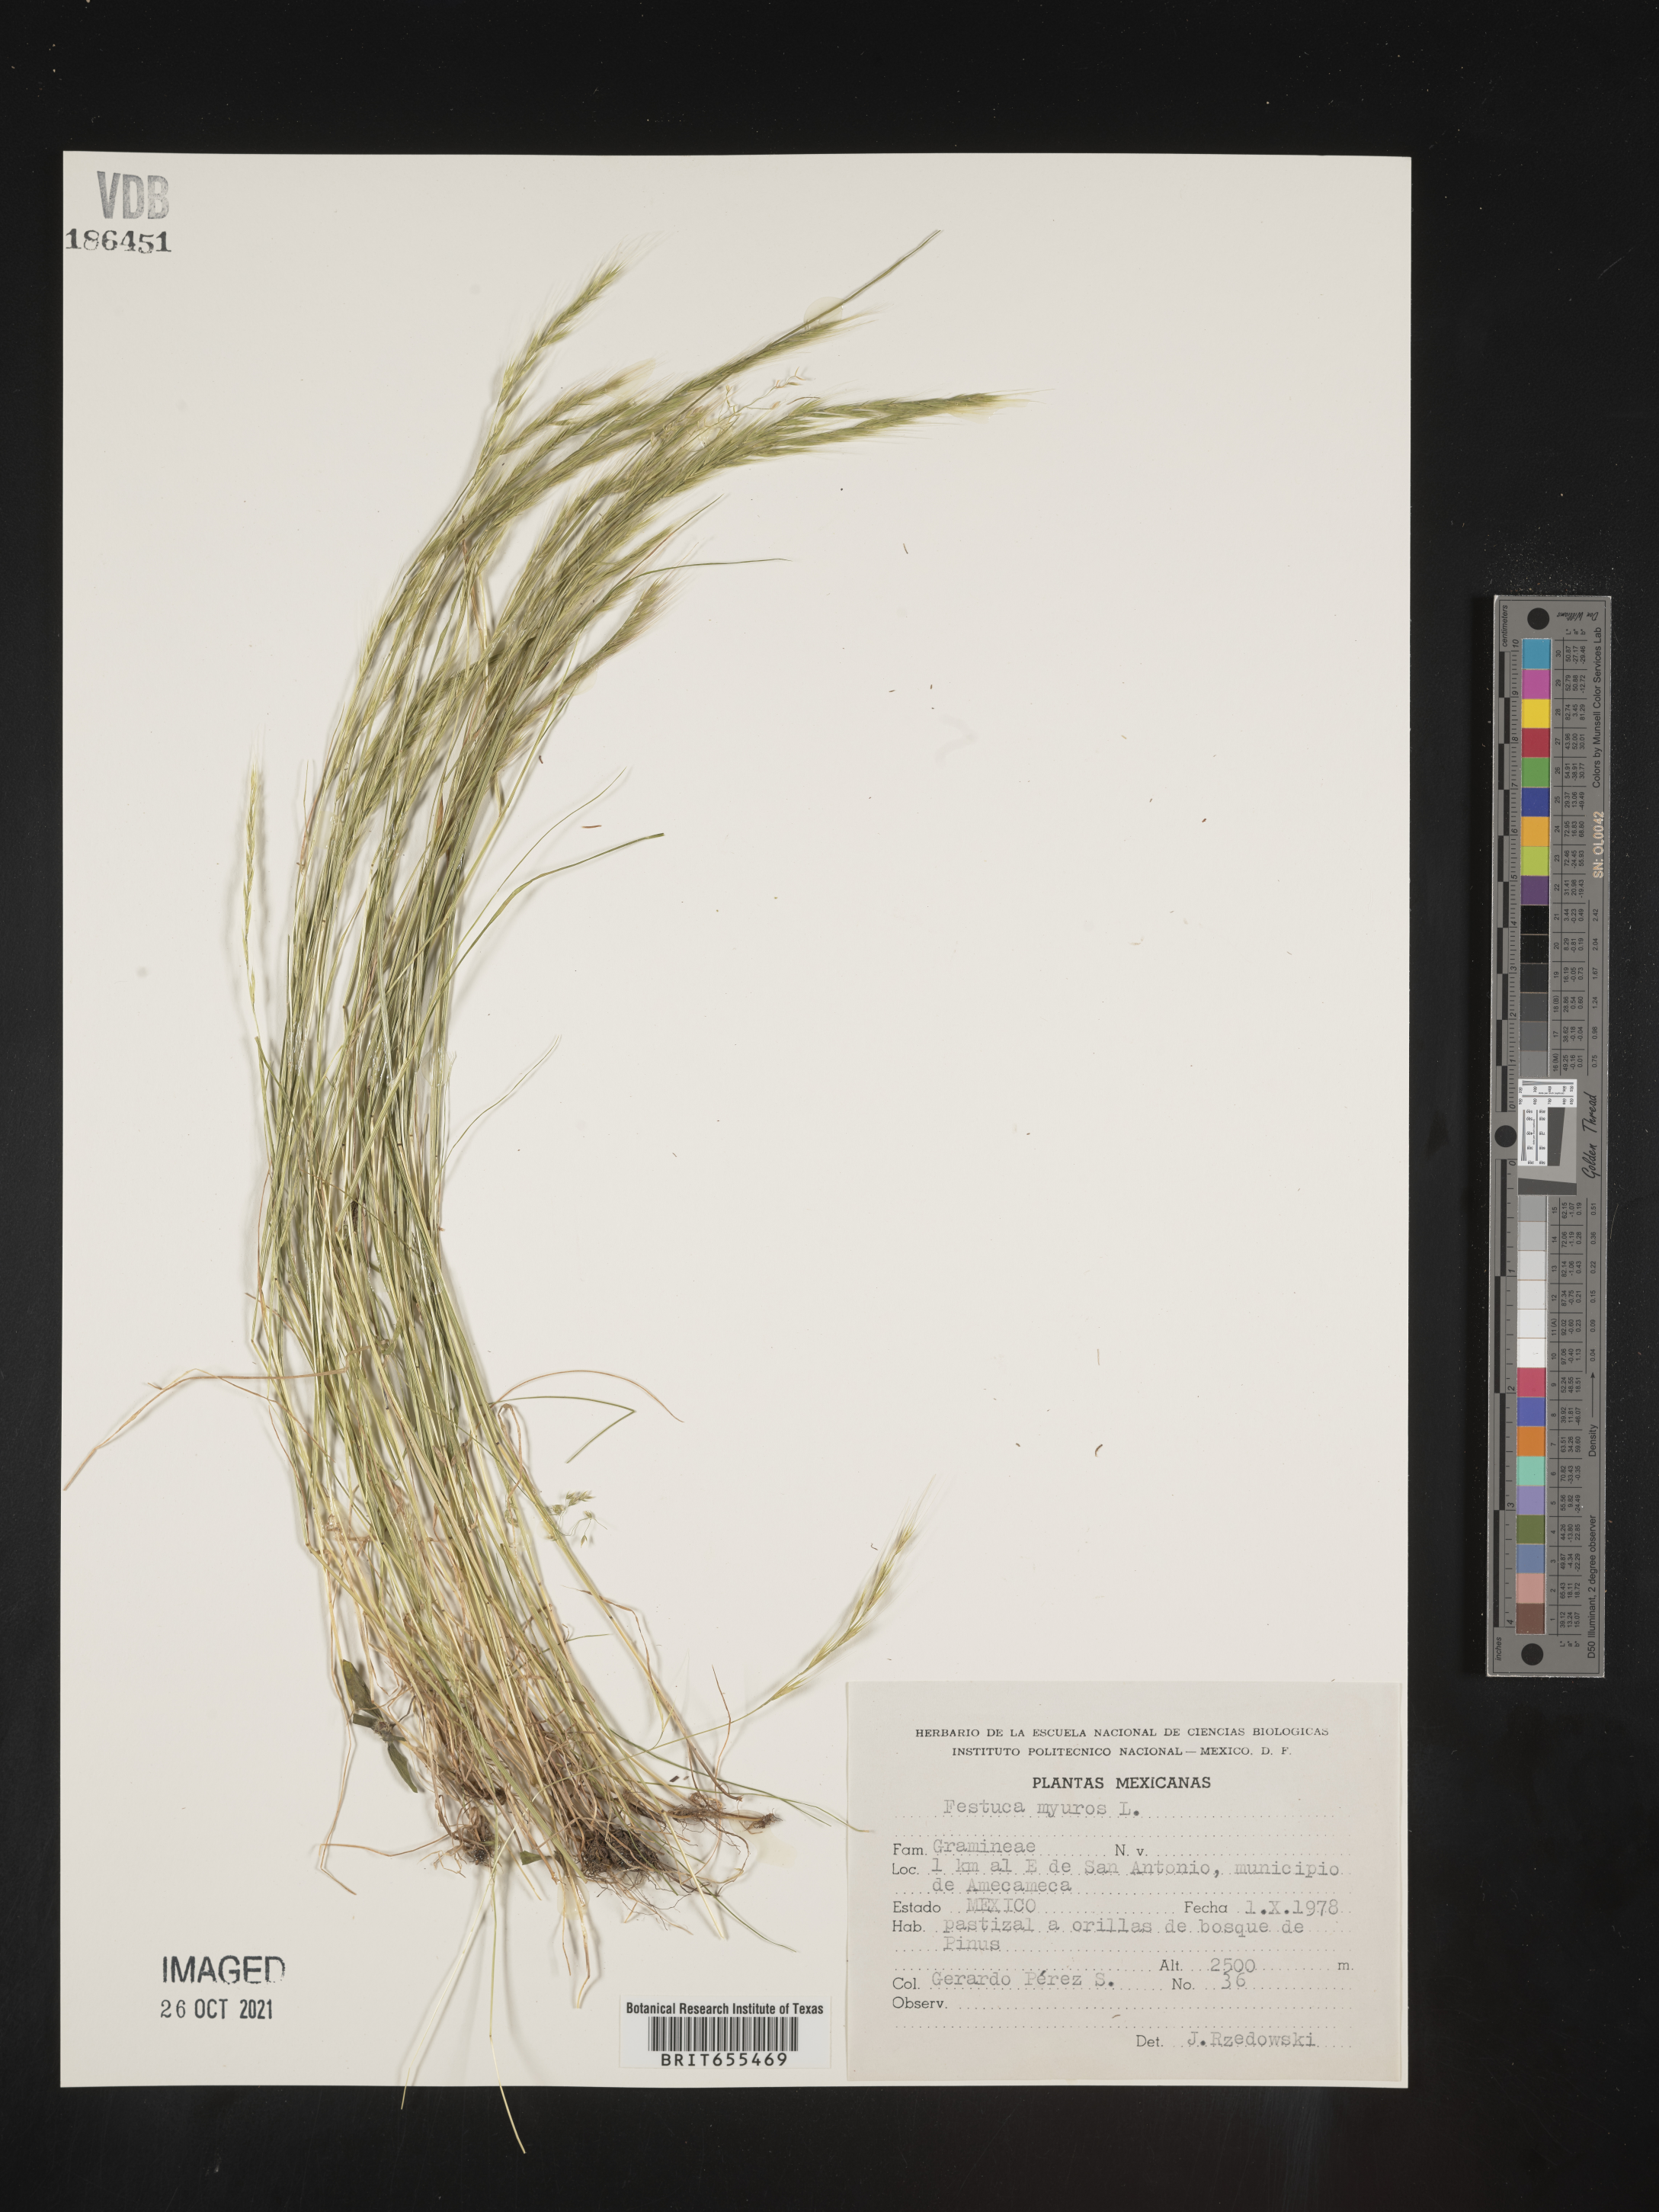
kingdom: Plantae
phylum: Tracheophyta
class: Liliopsida
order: Poales
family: Poaceae
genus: Festuca
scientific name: Festuca
